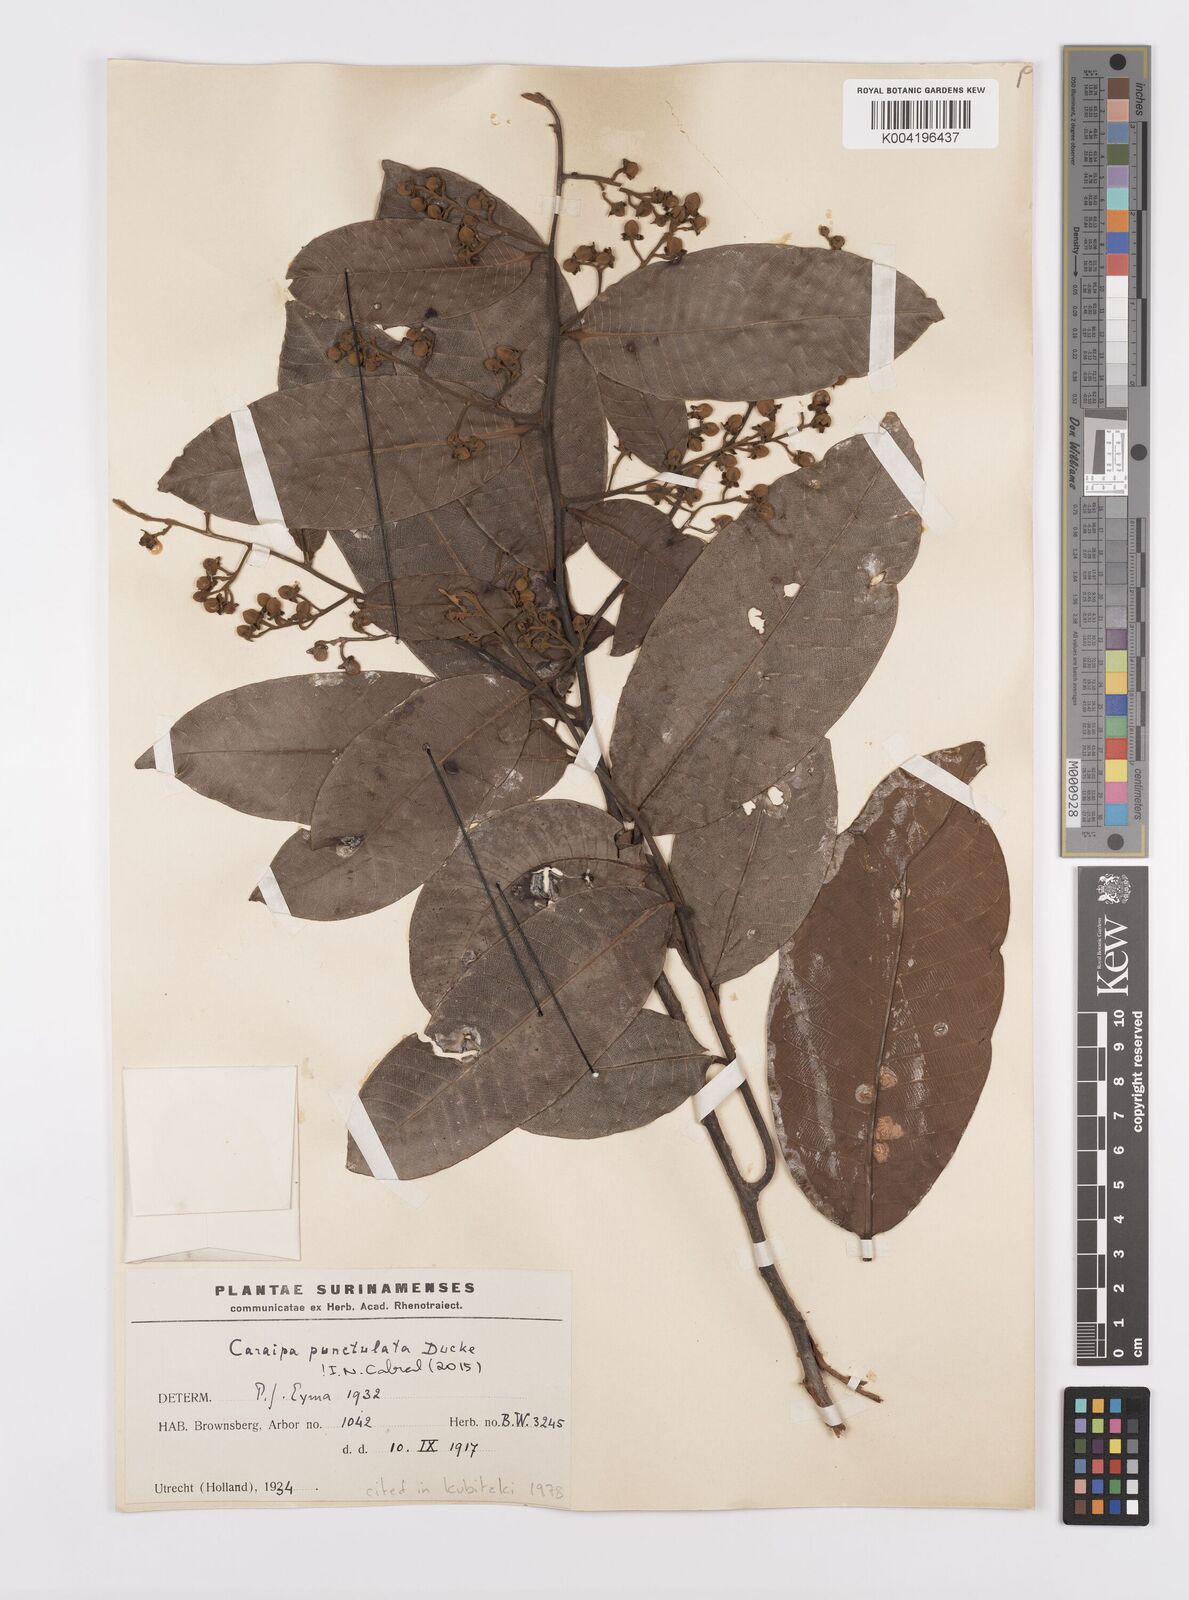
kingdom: Plantae
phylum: Tracheophyta
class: Magnoliopsida
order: Malpighiales
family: Calophyllaceae
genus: Caraipa
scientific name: Caraipa punctulata
